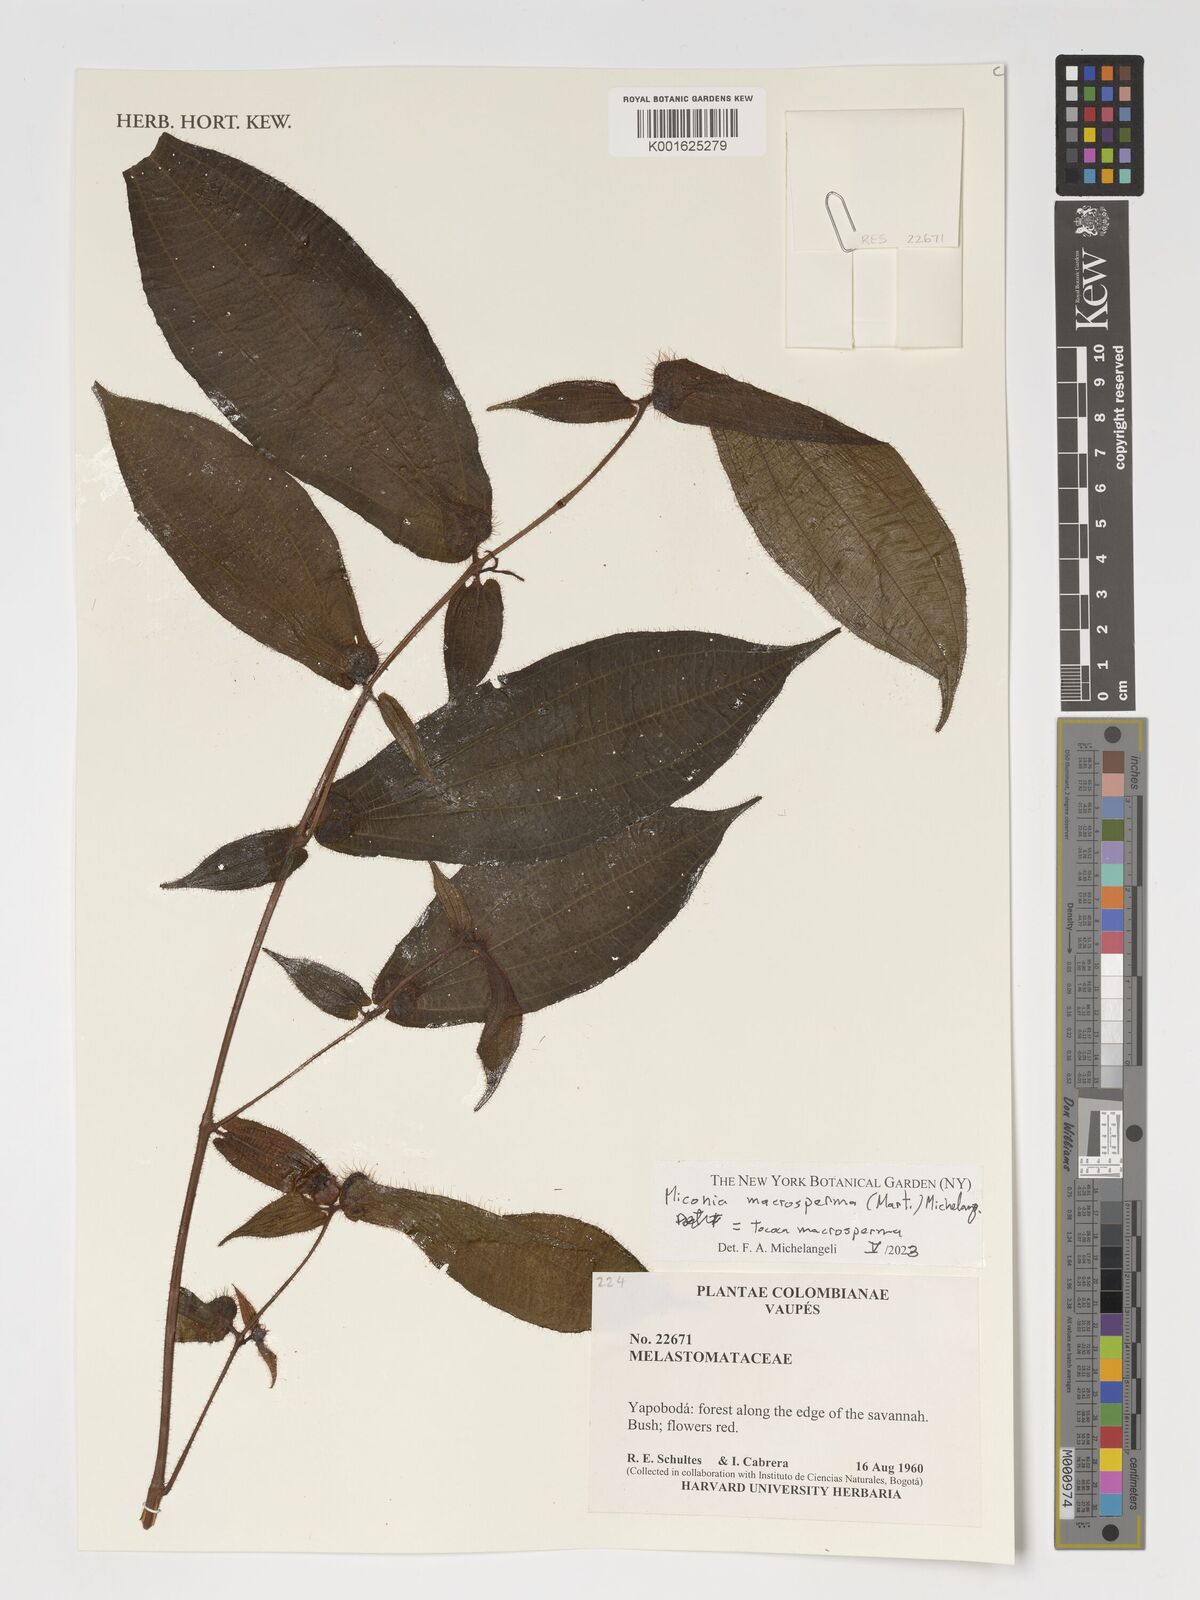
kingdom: Plantae
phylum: Tracheophyta
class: Magnoliopsida
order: Myrtales
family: Melastomataceae
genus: Miconia
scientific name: Miconia macrosperma
